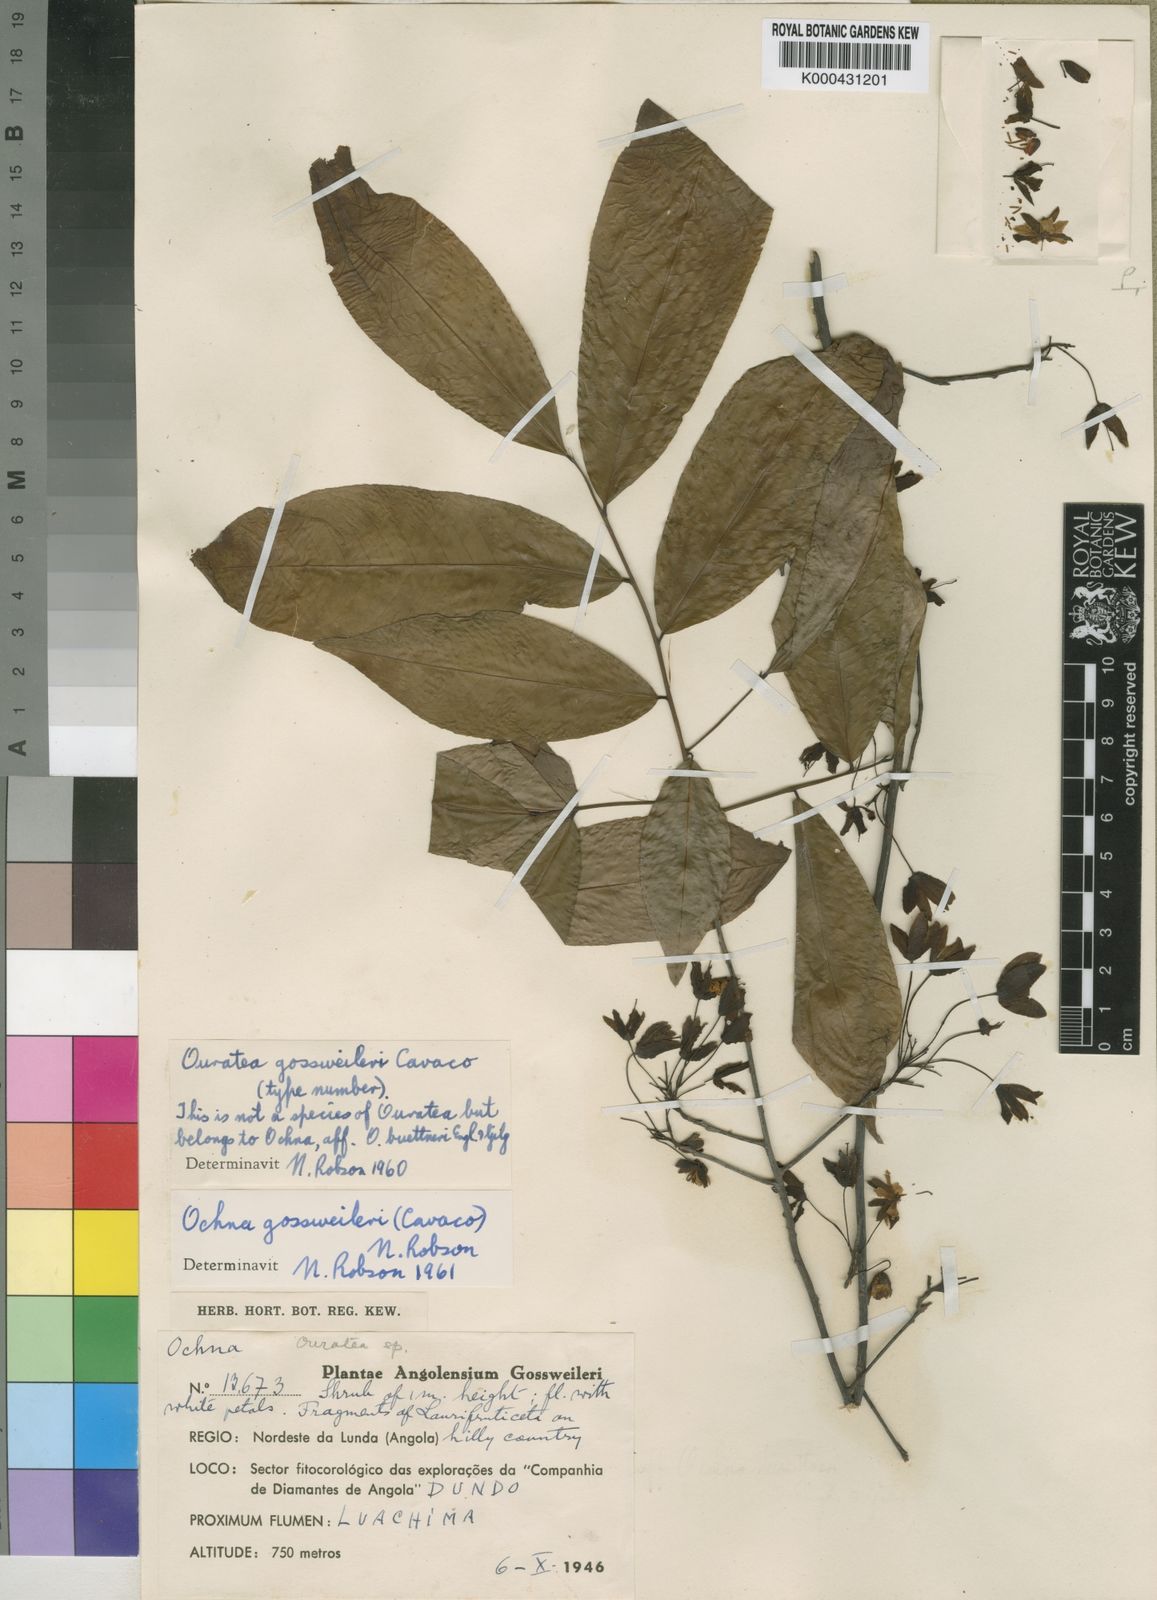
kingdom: Plantae
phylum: Tracheophyta
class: Magnoliopsida
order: Malpighiales
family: Ochnaceae
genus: Ochna
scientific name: Ochna latisepala
